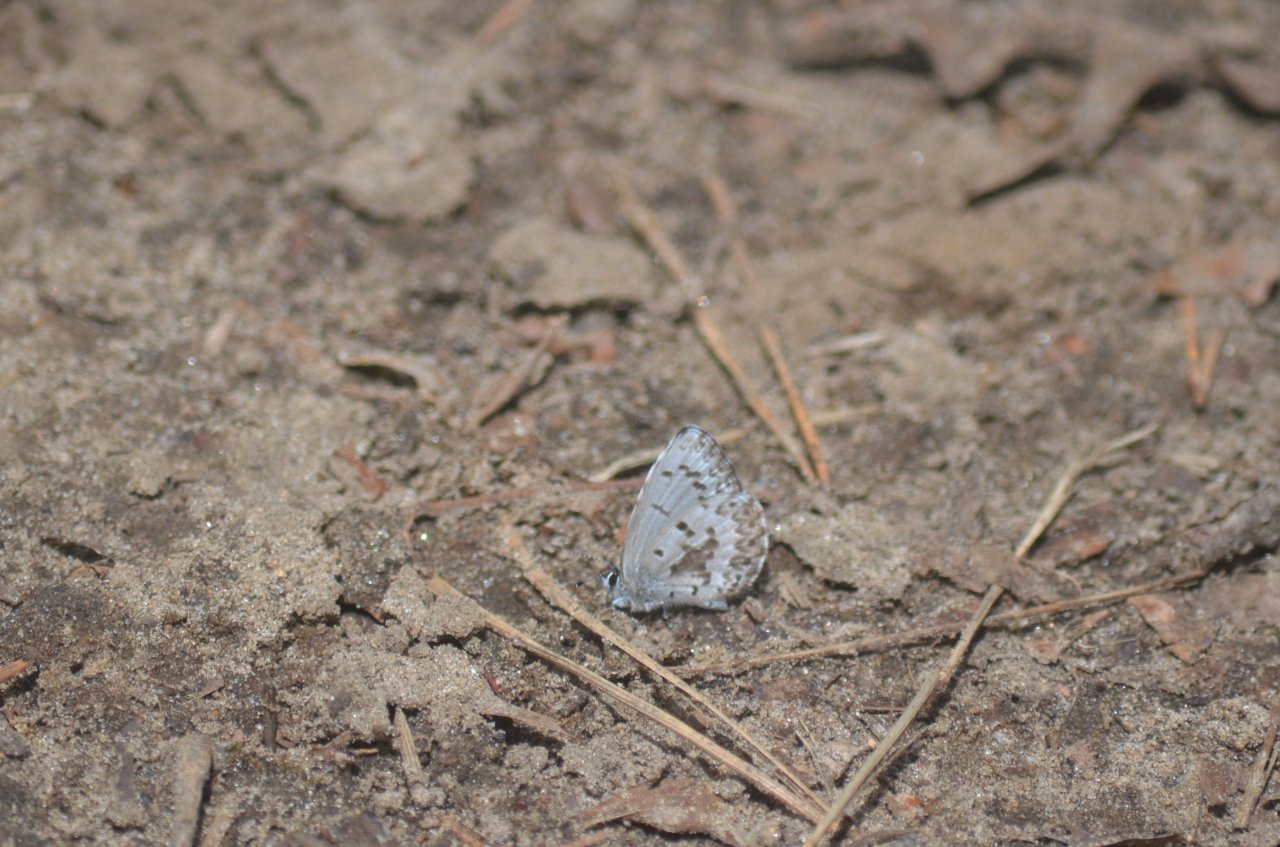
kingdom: Animalia
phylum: Arthropoda
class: Insecta
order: Lepidoptera
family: Lycaenidae
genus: Celastrina
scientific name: Celastrina lucia
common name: Northern Spring Azure
